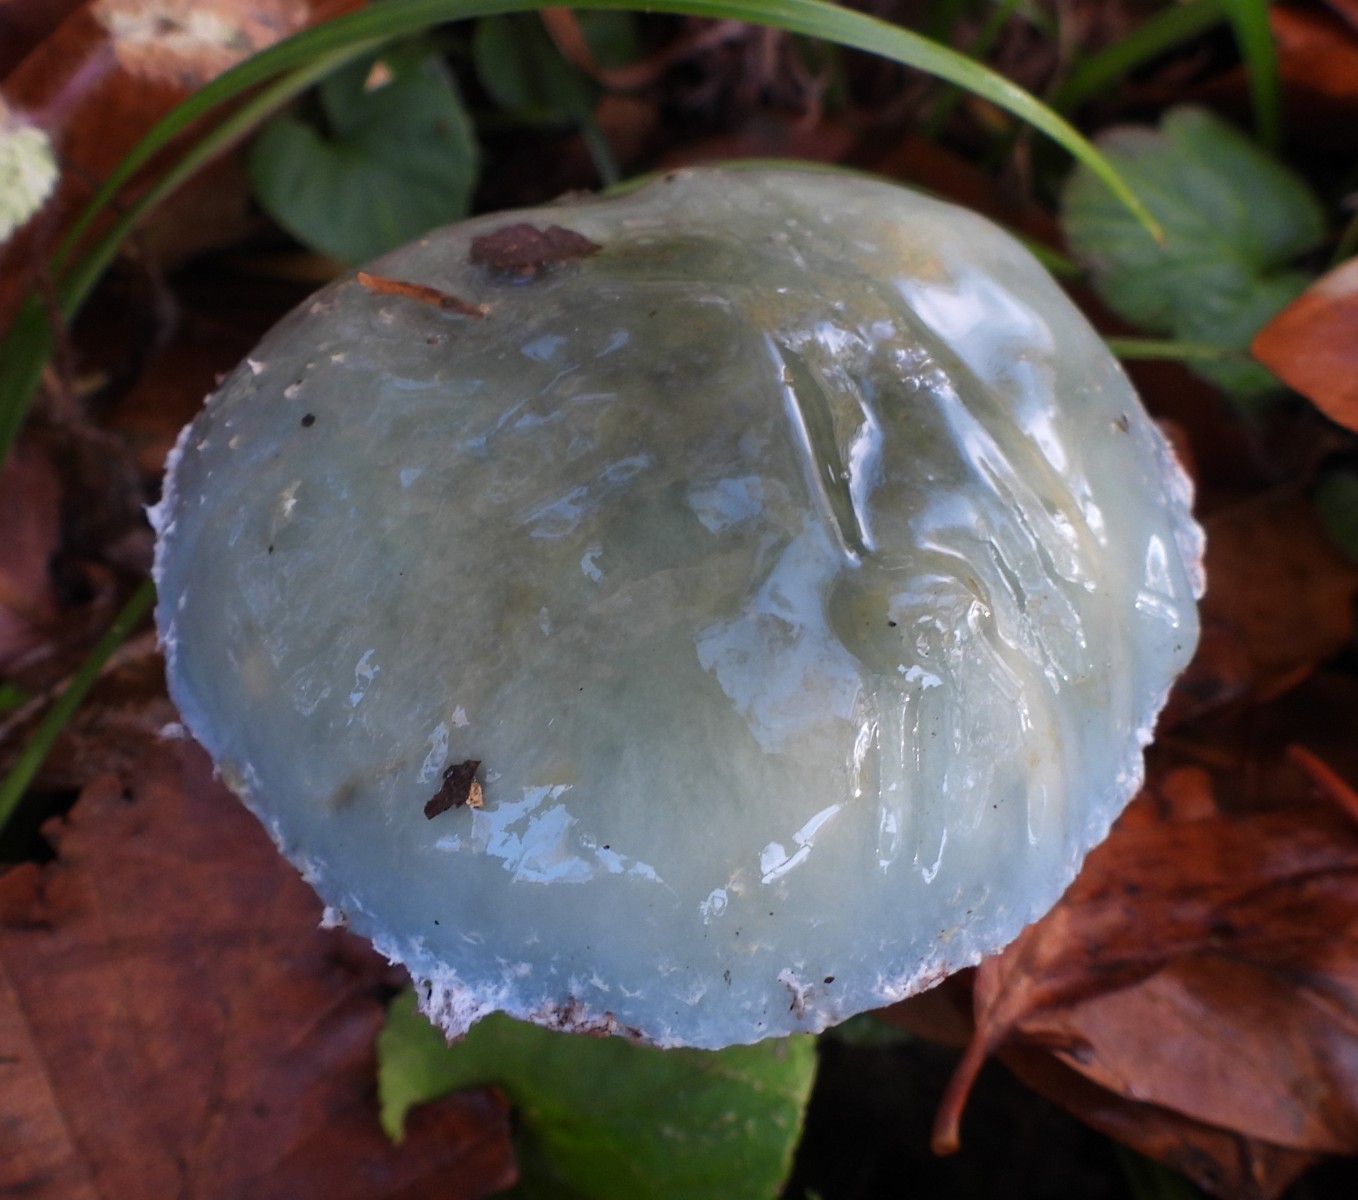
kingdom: Fungi
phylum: Basidiomycota
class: Agaricomycetes
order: Agaricales
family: Strophariaceae
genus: Stropharia
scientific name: Stropharia cyanea
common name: blågrøn bredblad
